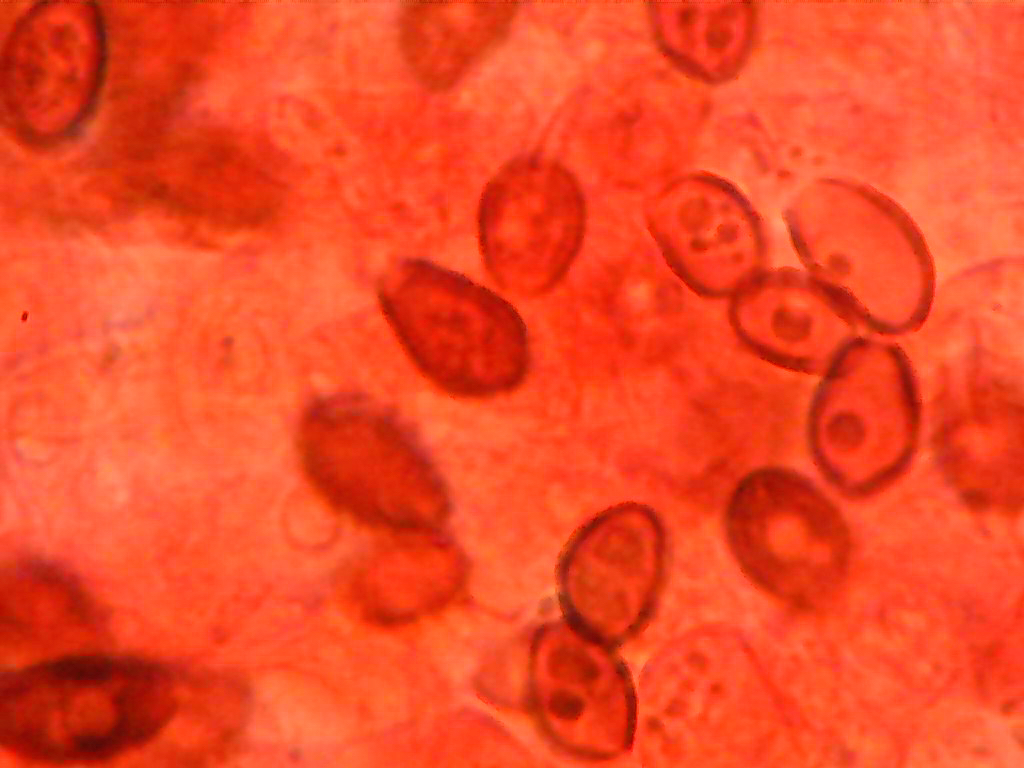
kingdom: Fungi
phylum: Basidiomycota
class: Agaricomycetes
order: Agaricales
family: Psathyrellaceae
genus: Coprinellus
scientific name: Coprinellus micaceus
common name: glimmer-blækhat
